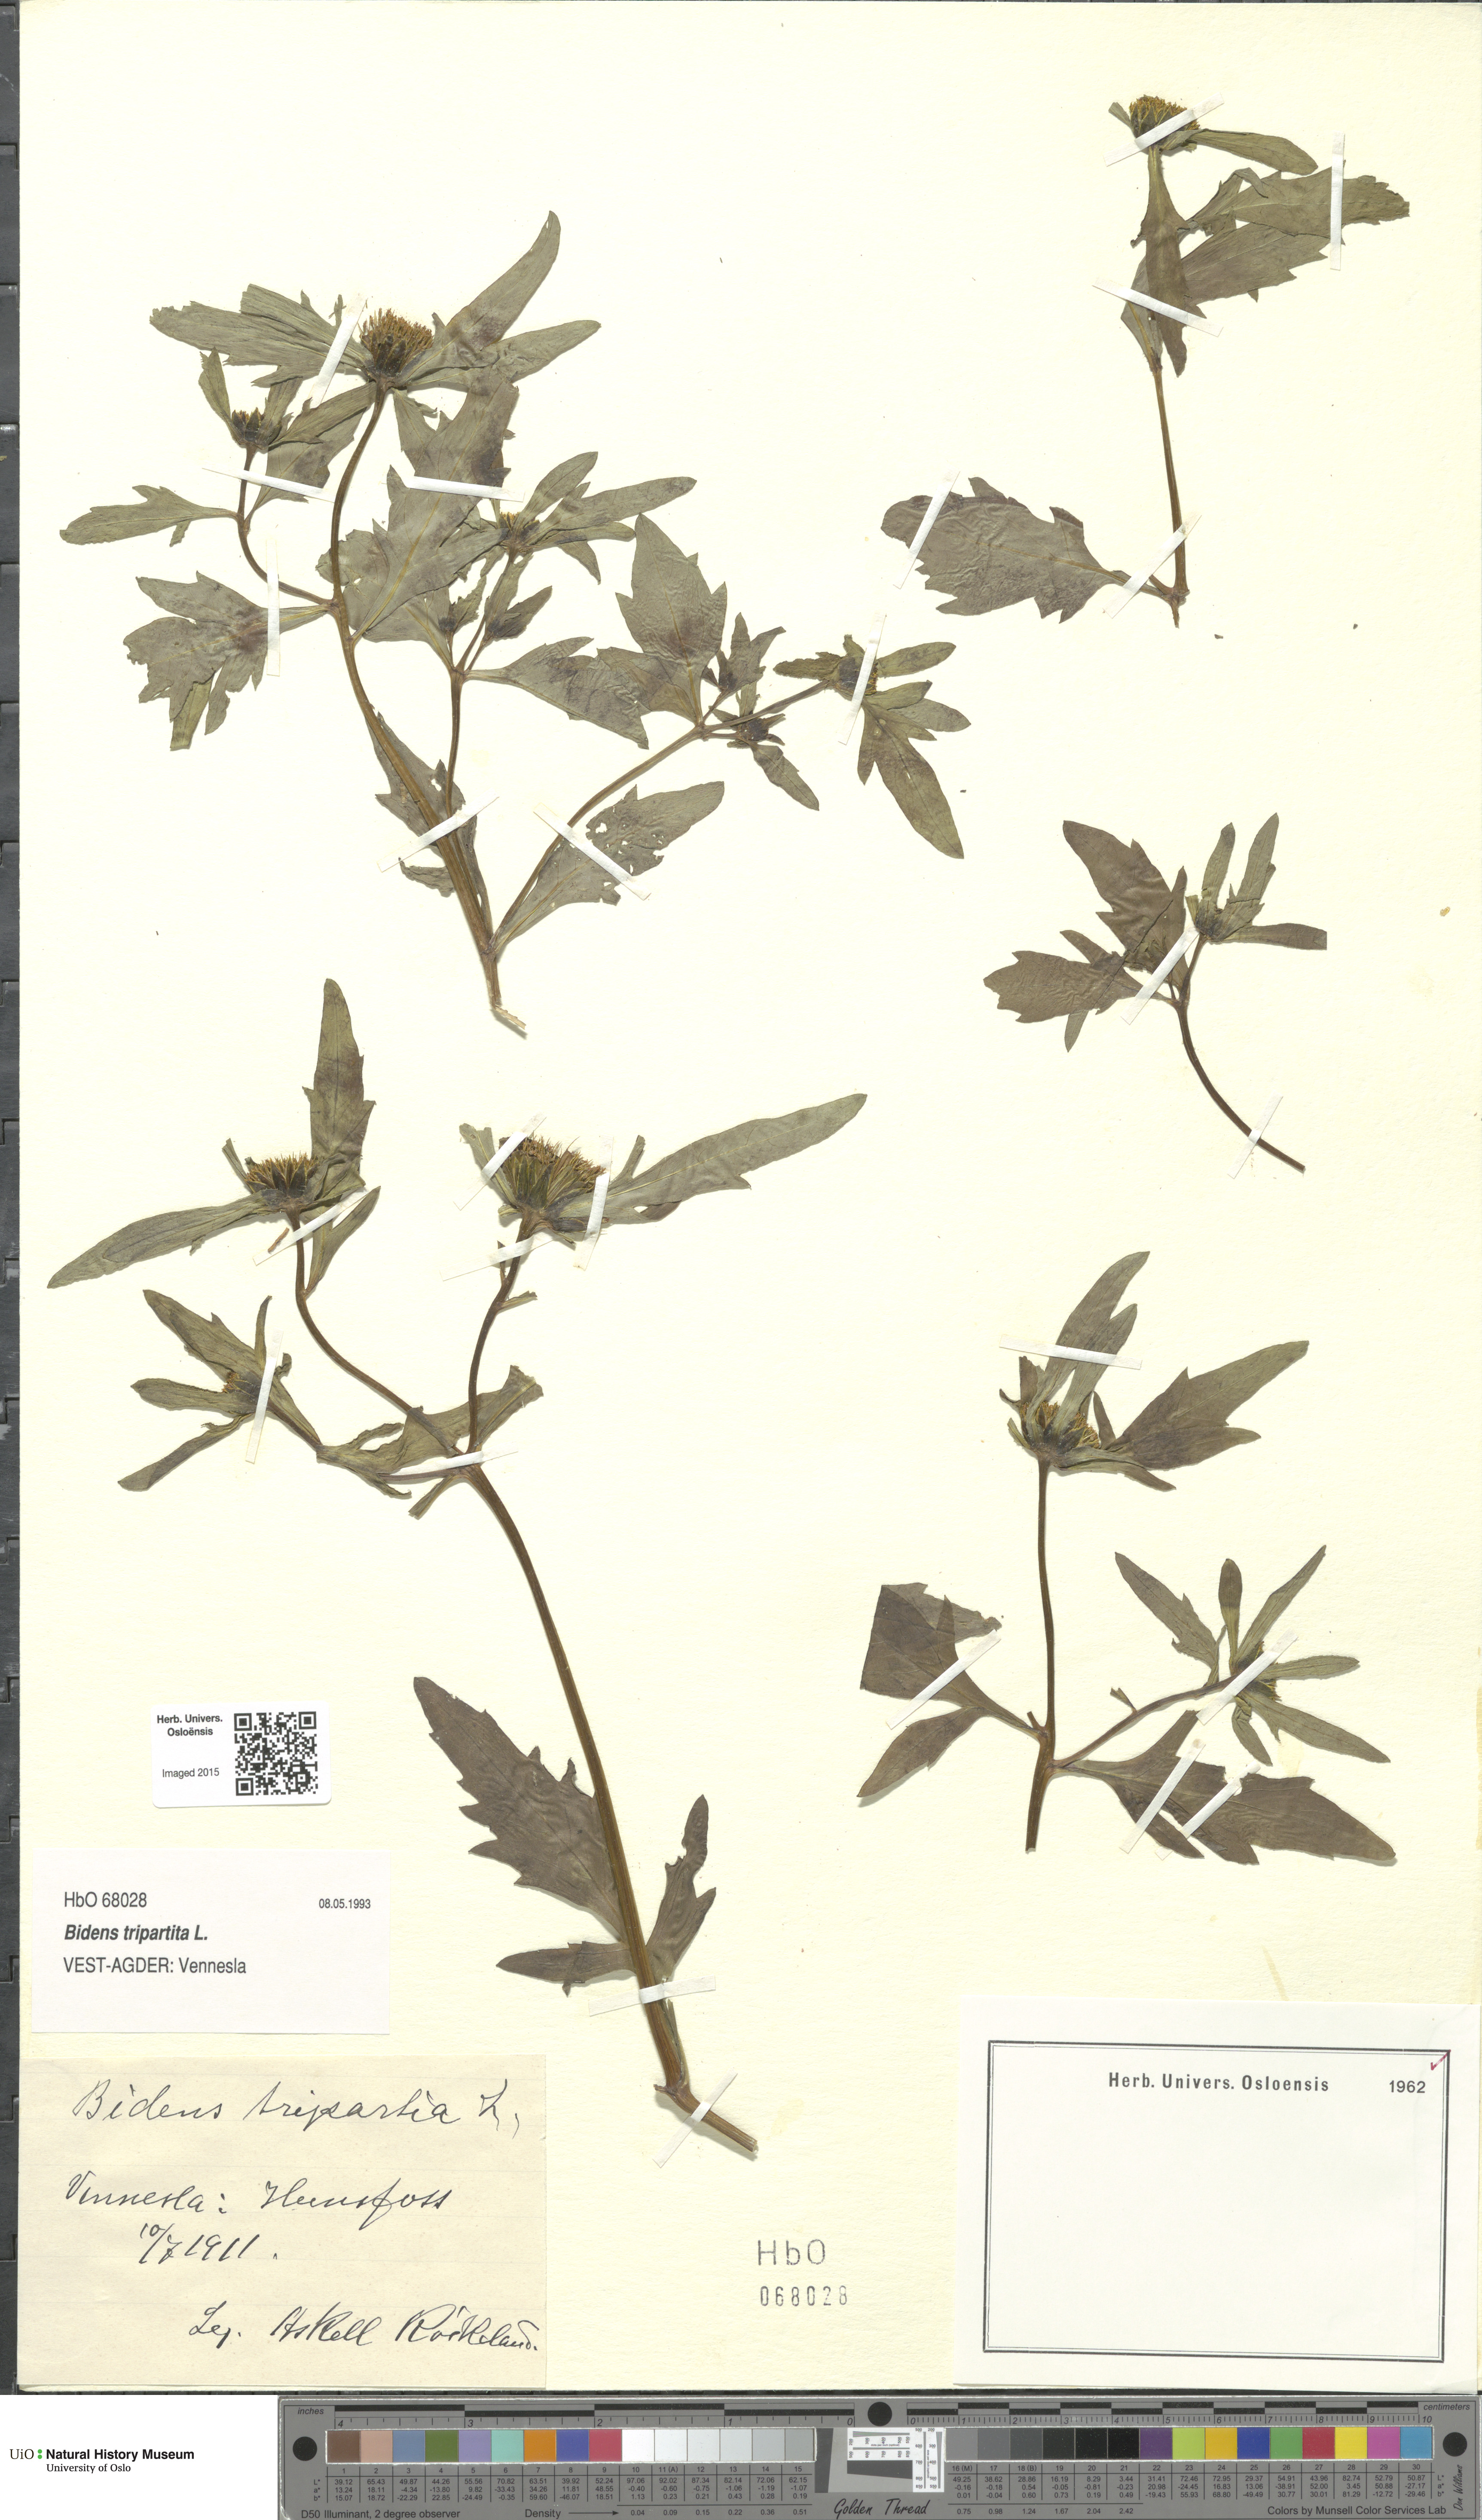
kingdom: Plantae
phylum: Tracheophyta
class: Magnoliopsida
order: Asterales
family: Asteraceae
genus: Bidens
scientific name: Bidens tripartita
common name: Trifid bur-marigold
